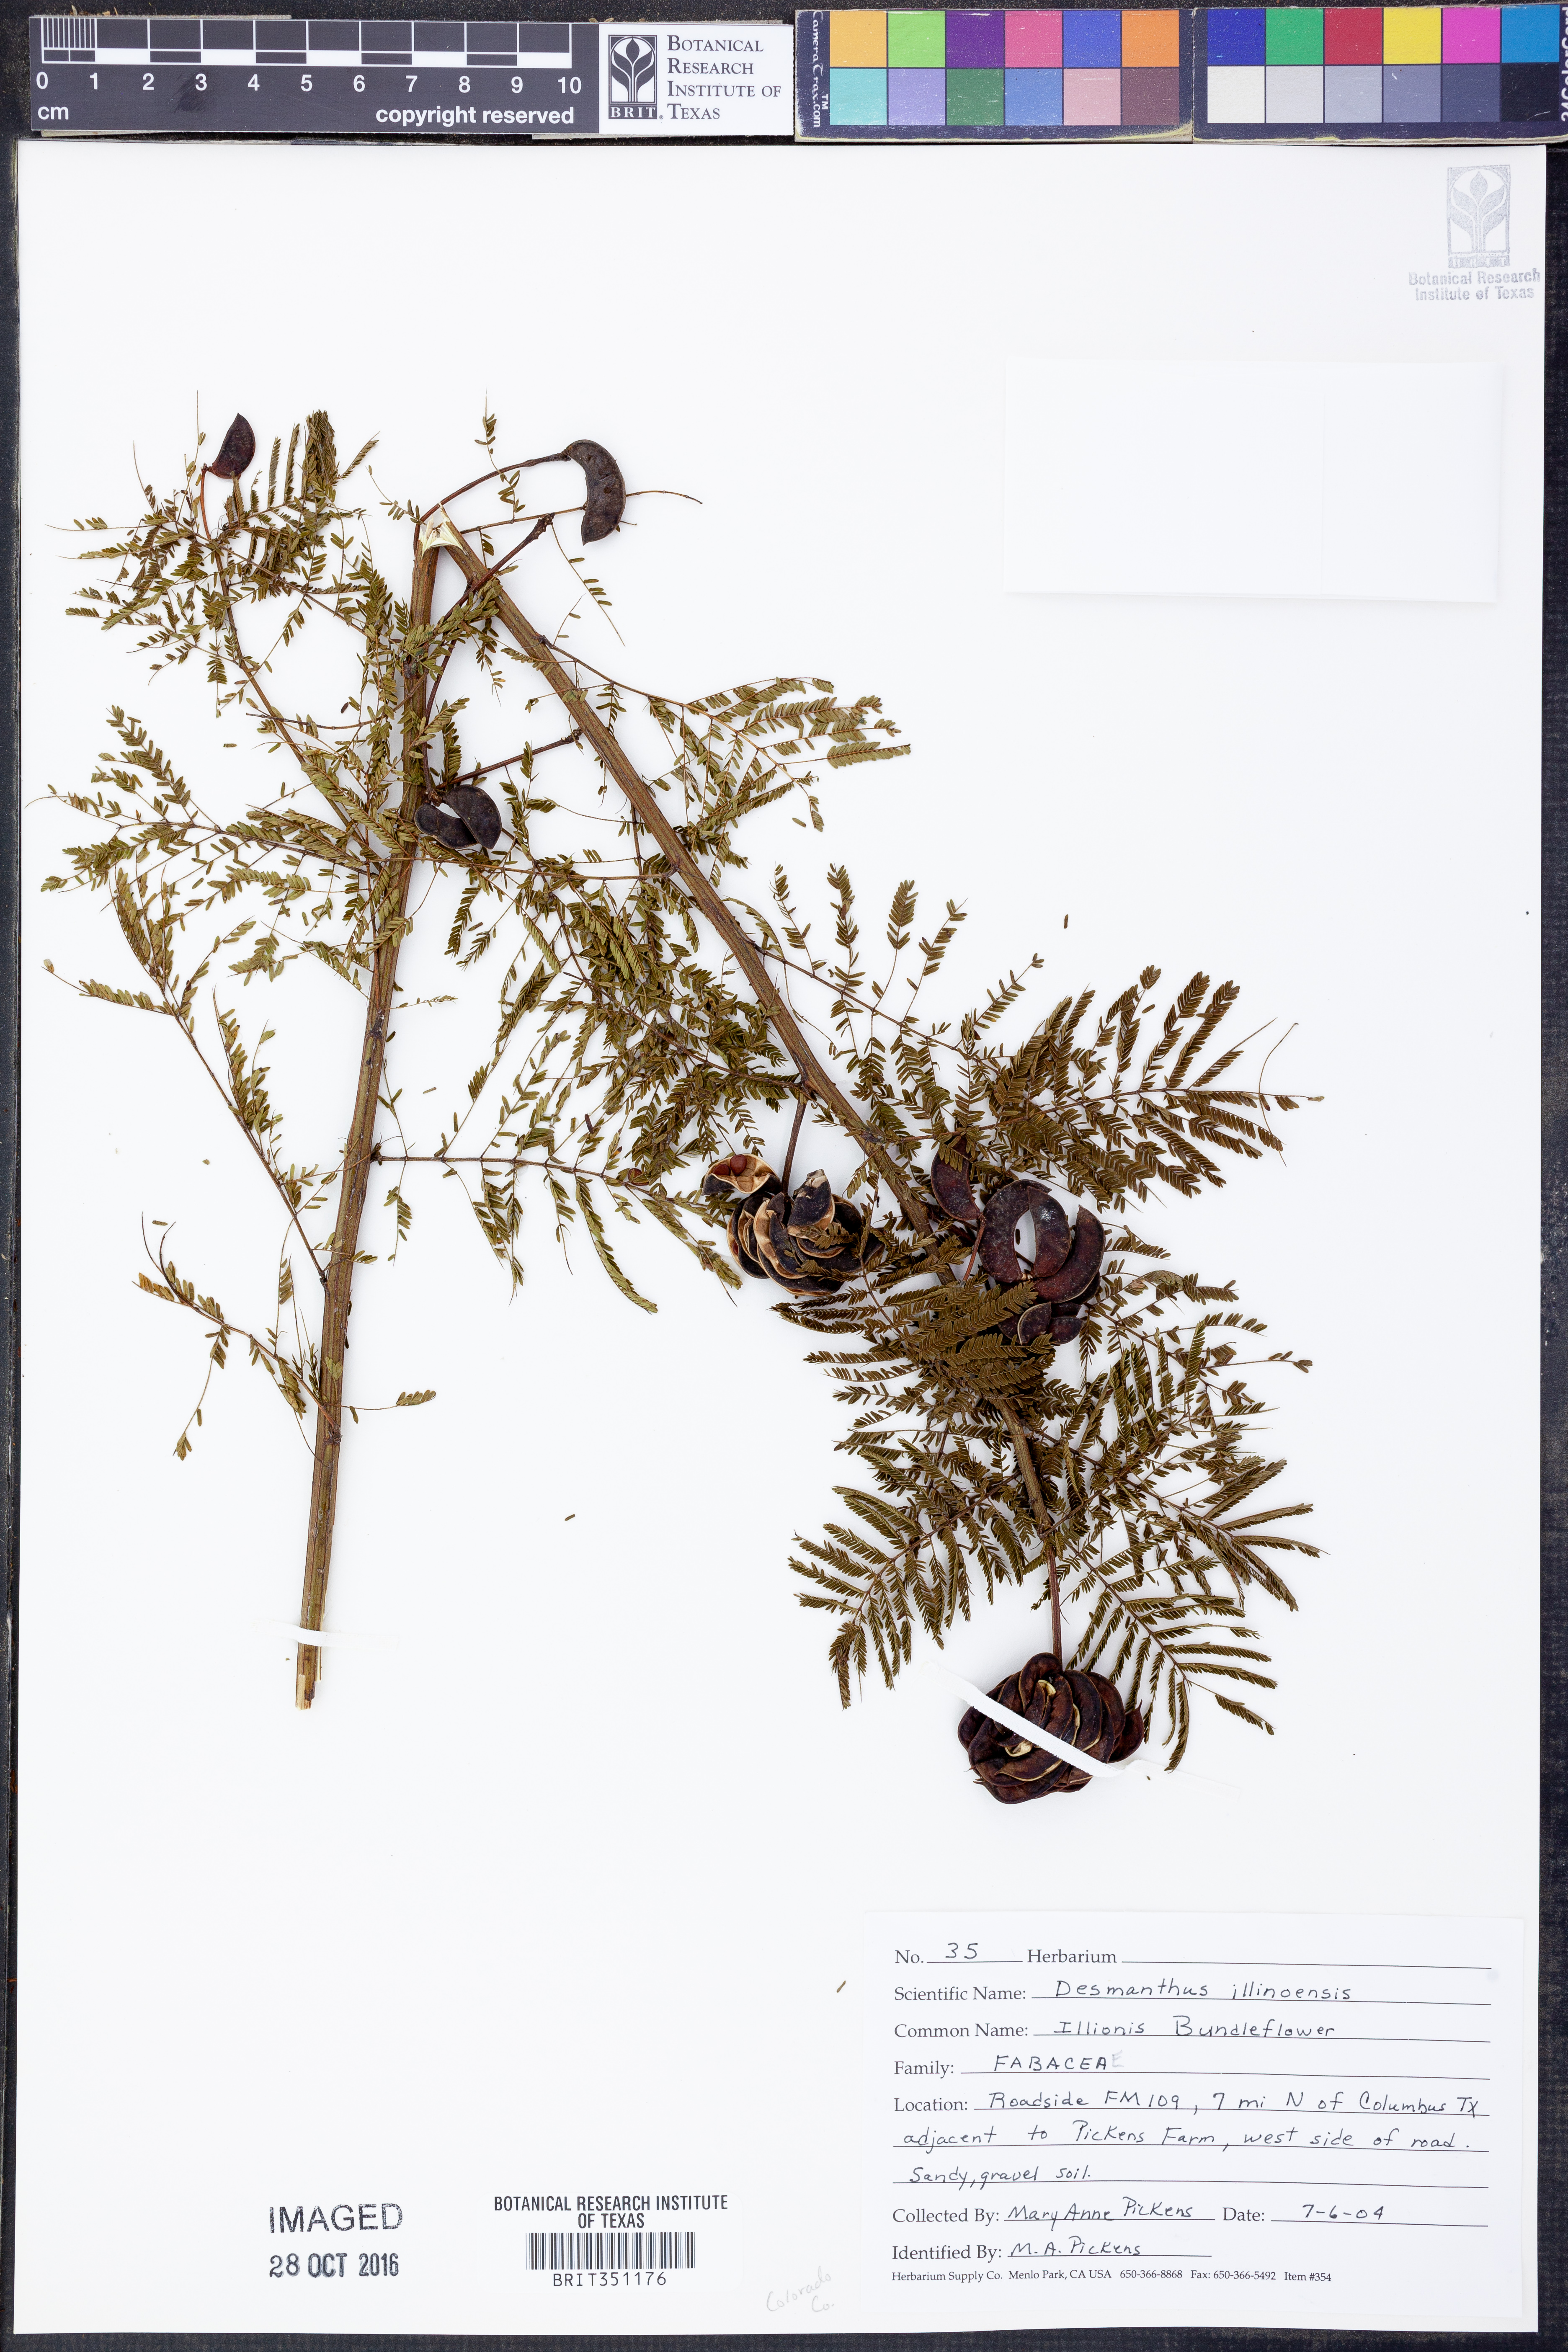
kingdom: Plantae
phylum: Tracheophyta
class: Magnoliopsida
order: Fabales
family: Fabaceae
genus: Desmanthus
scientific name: Desmanthus illinoensis
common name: Illinois bundle-flower
